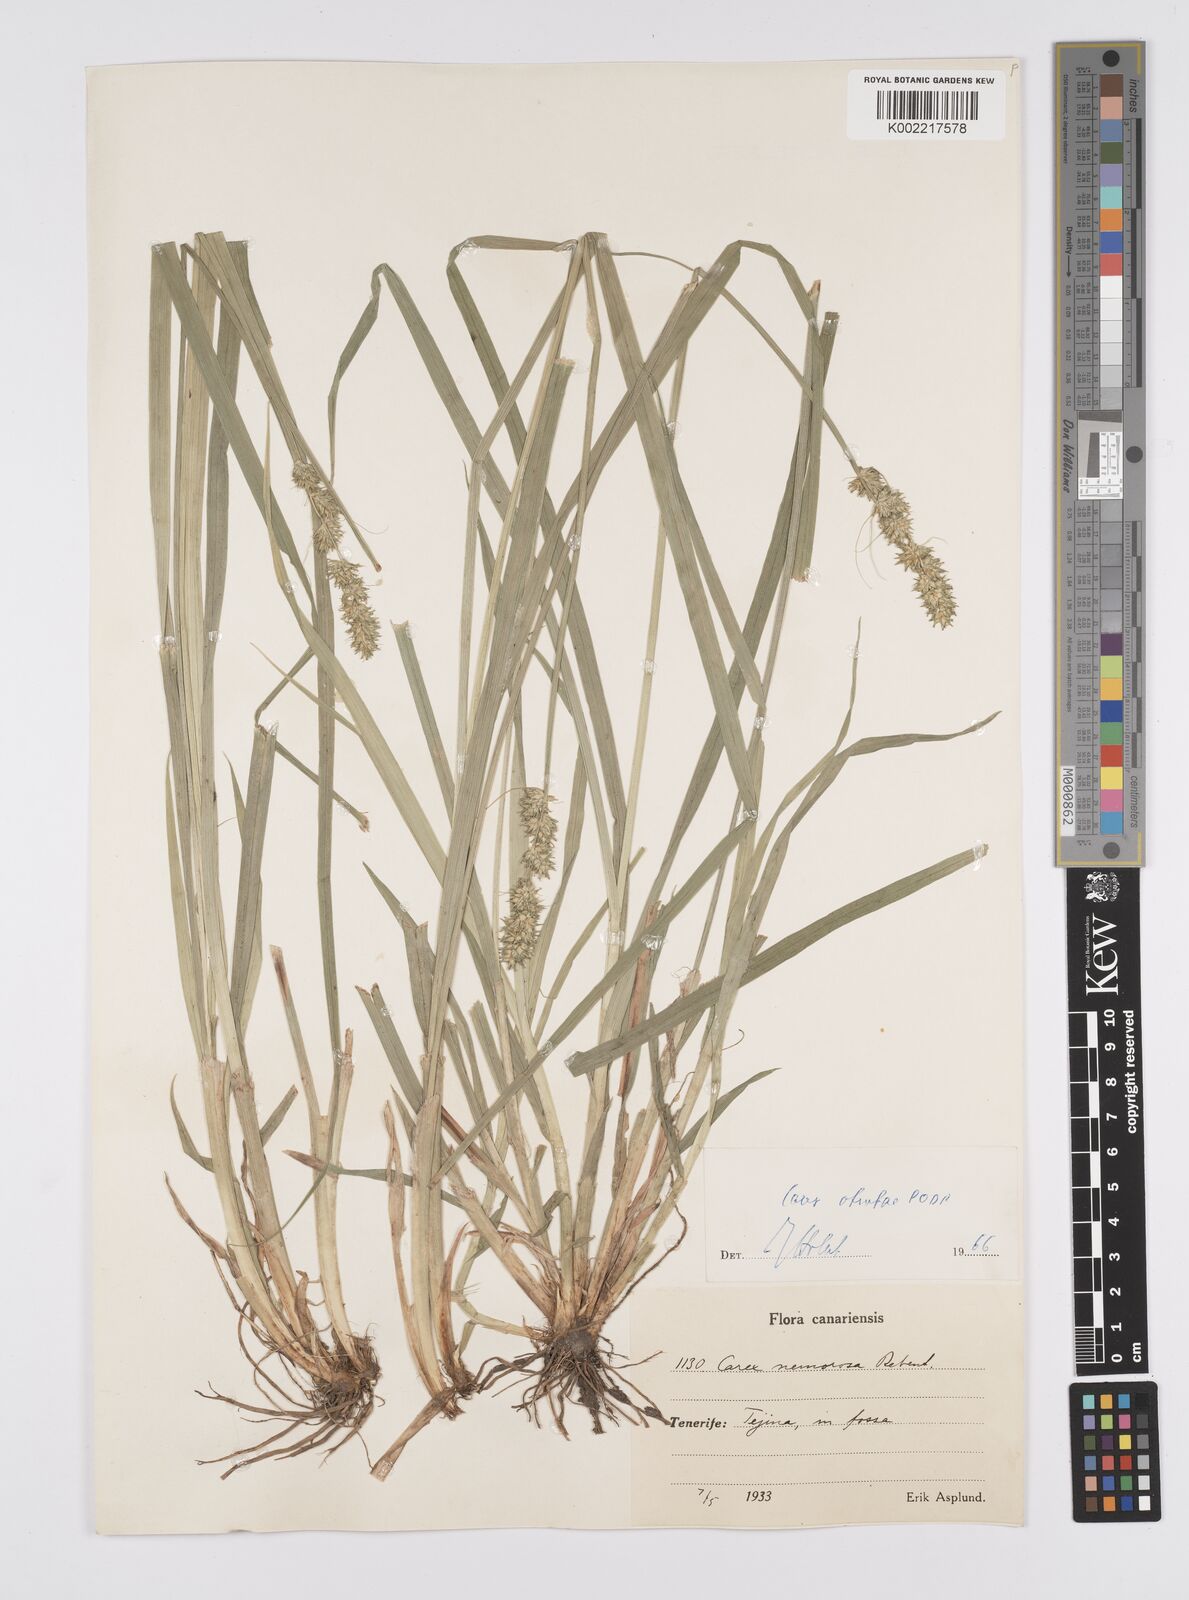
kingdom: Plantae
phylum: Tracheophyta
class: Liliopsida
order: Poales
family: Cyperaceae
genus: Carex
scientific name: Carex vulpina
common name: True fox-sedge
